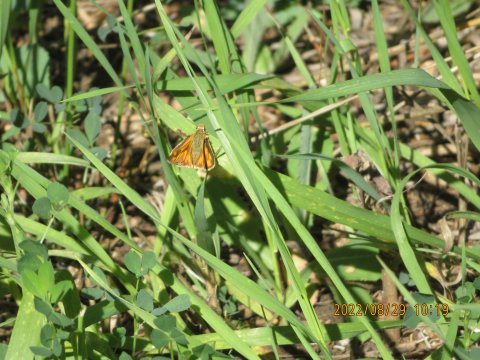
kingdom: Animalia
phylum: Arthropoda
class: Insecta
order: Lepidoptera
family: Hesperiidae
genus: Ochlodes
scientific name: Ochlodes sylvanoides
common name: Woodland Skipper
